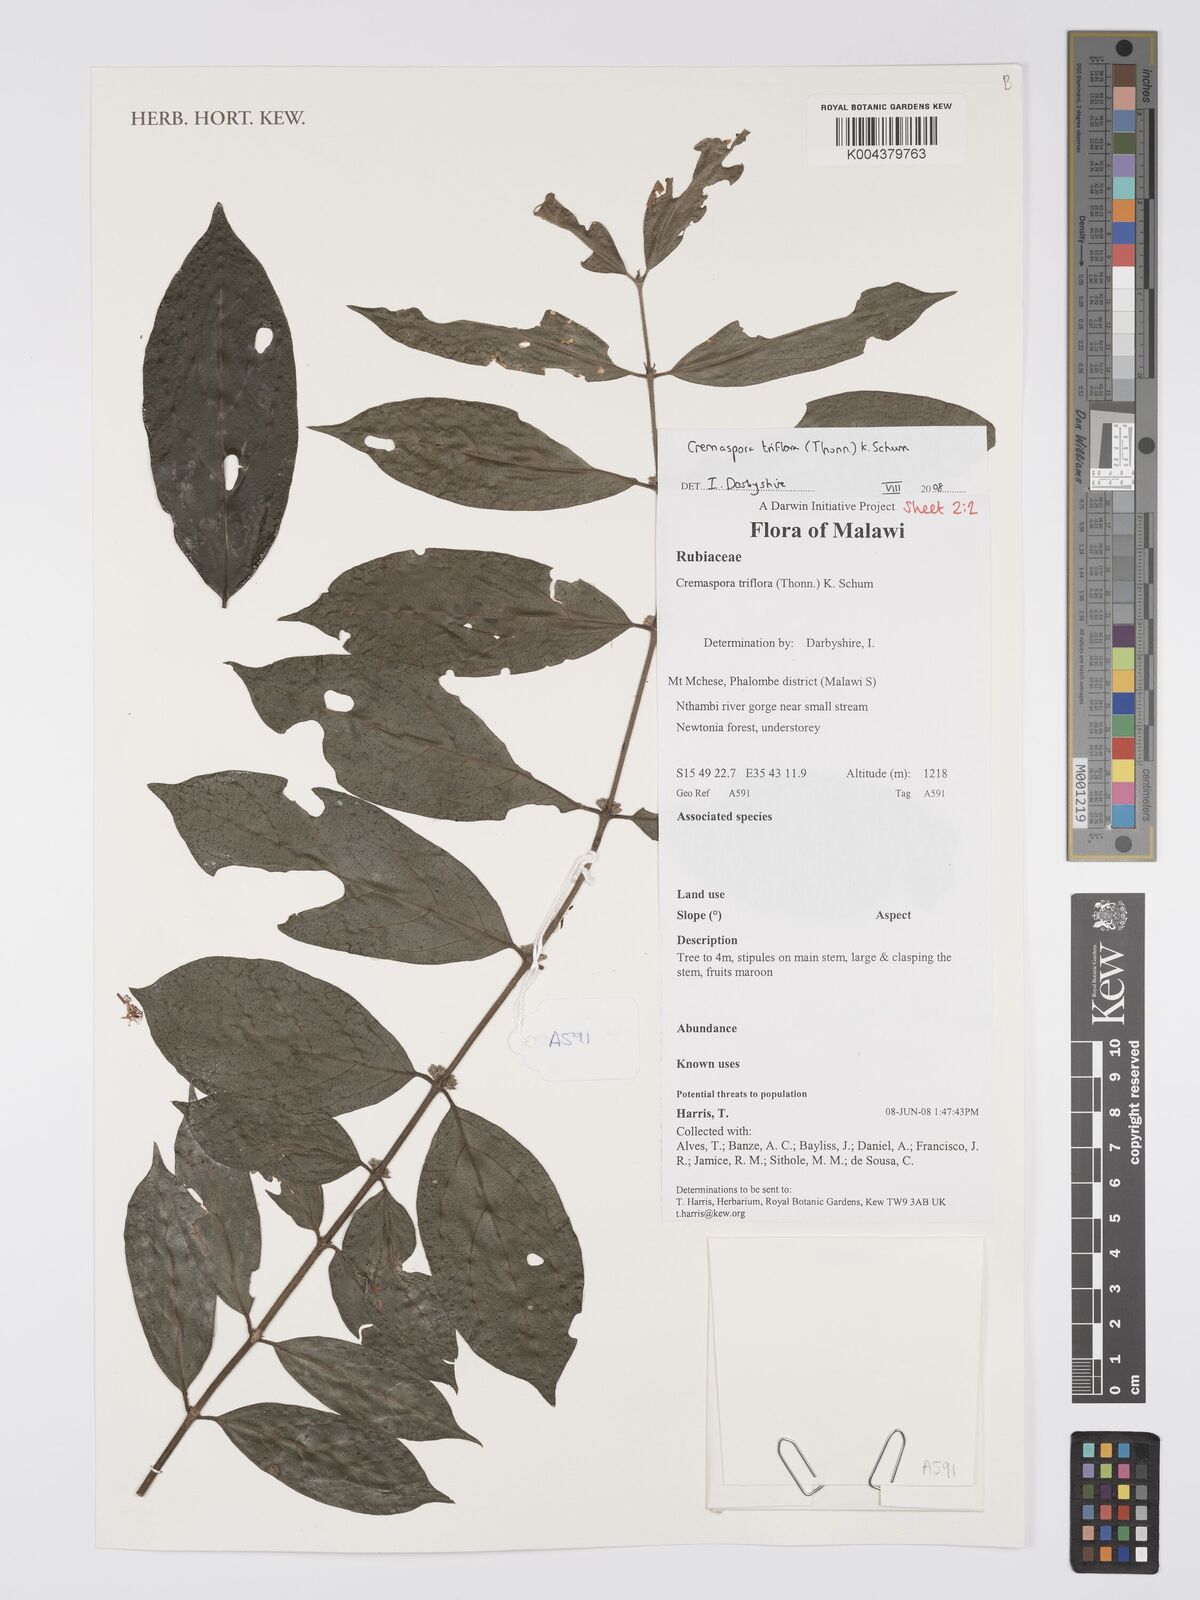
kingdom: Plantae
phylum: Tracheophyta
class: Magnoliopsida
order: Gentianales
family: Rubiaceae
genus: Cremaspora
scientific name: Cremaspora triflora
